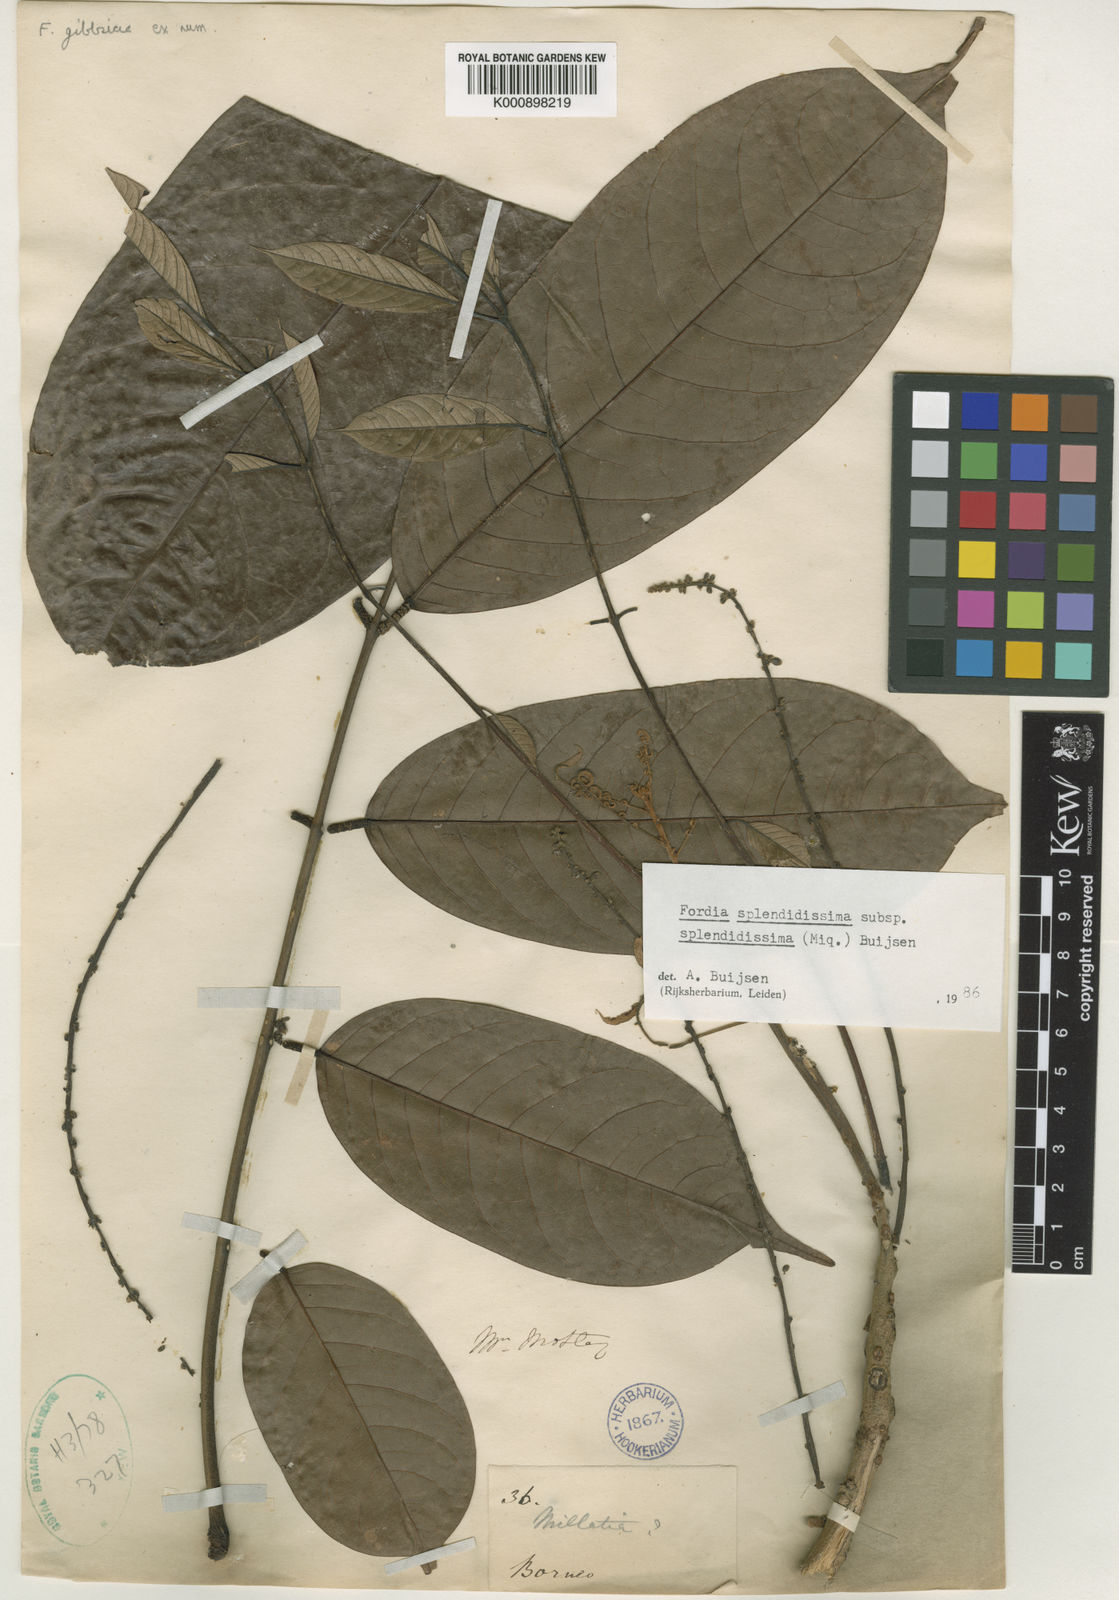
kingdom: Plantae
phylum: Tracheophyta
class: Magnoliopsida
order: Fabales
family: Fabaceae
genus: Fordia
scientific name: Fordia splendidissima
